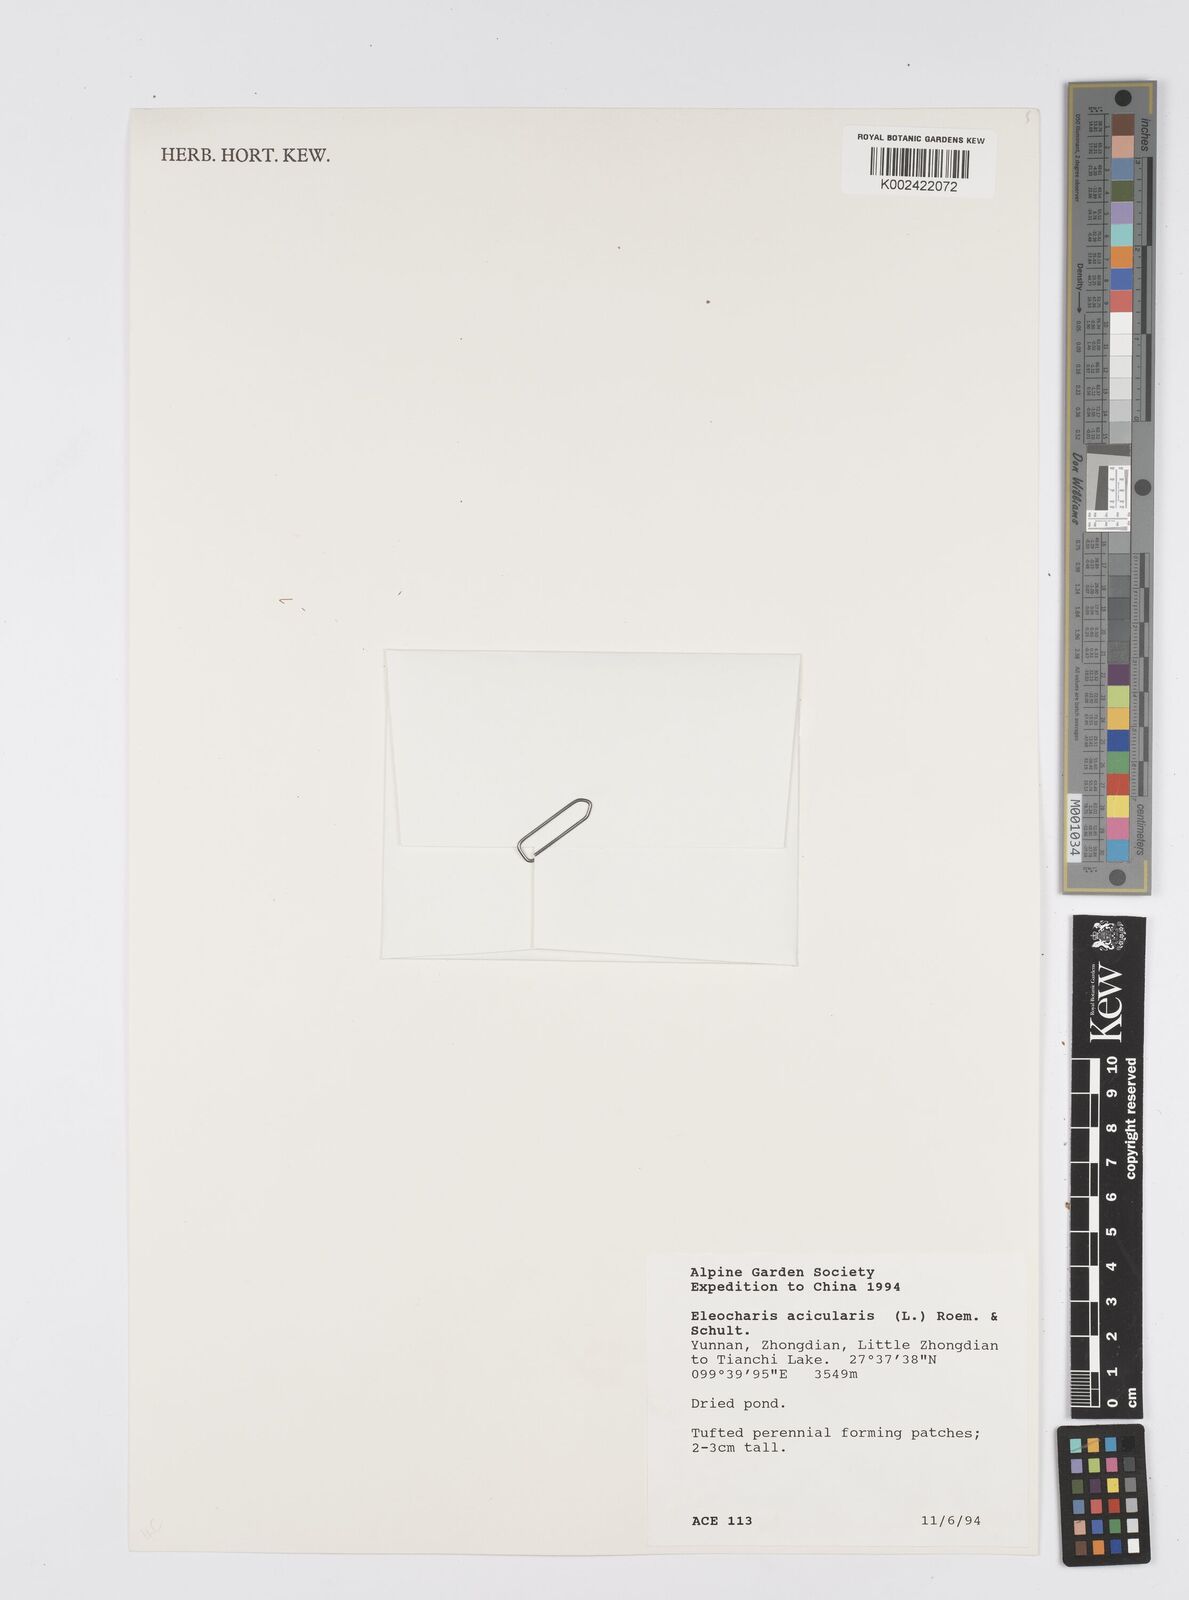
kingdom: Plantae
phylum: Tracheophyta
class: Liliopsida
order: Poales
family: Cyperaceae
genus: Eleocharis
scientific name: Eleocharis acicularis
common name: Needle spike-rush
